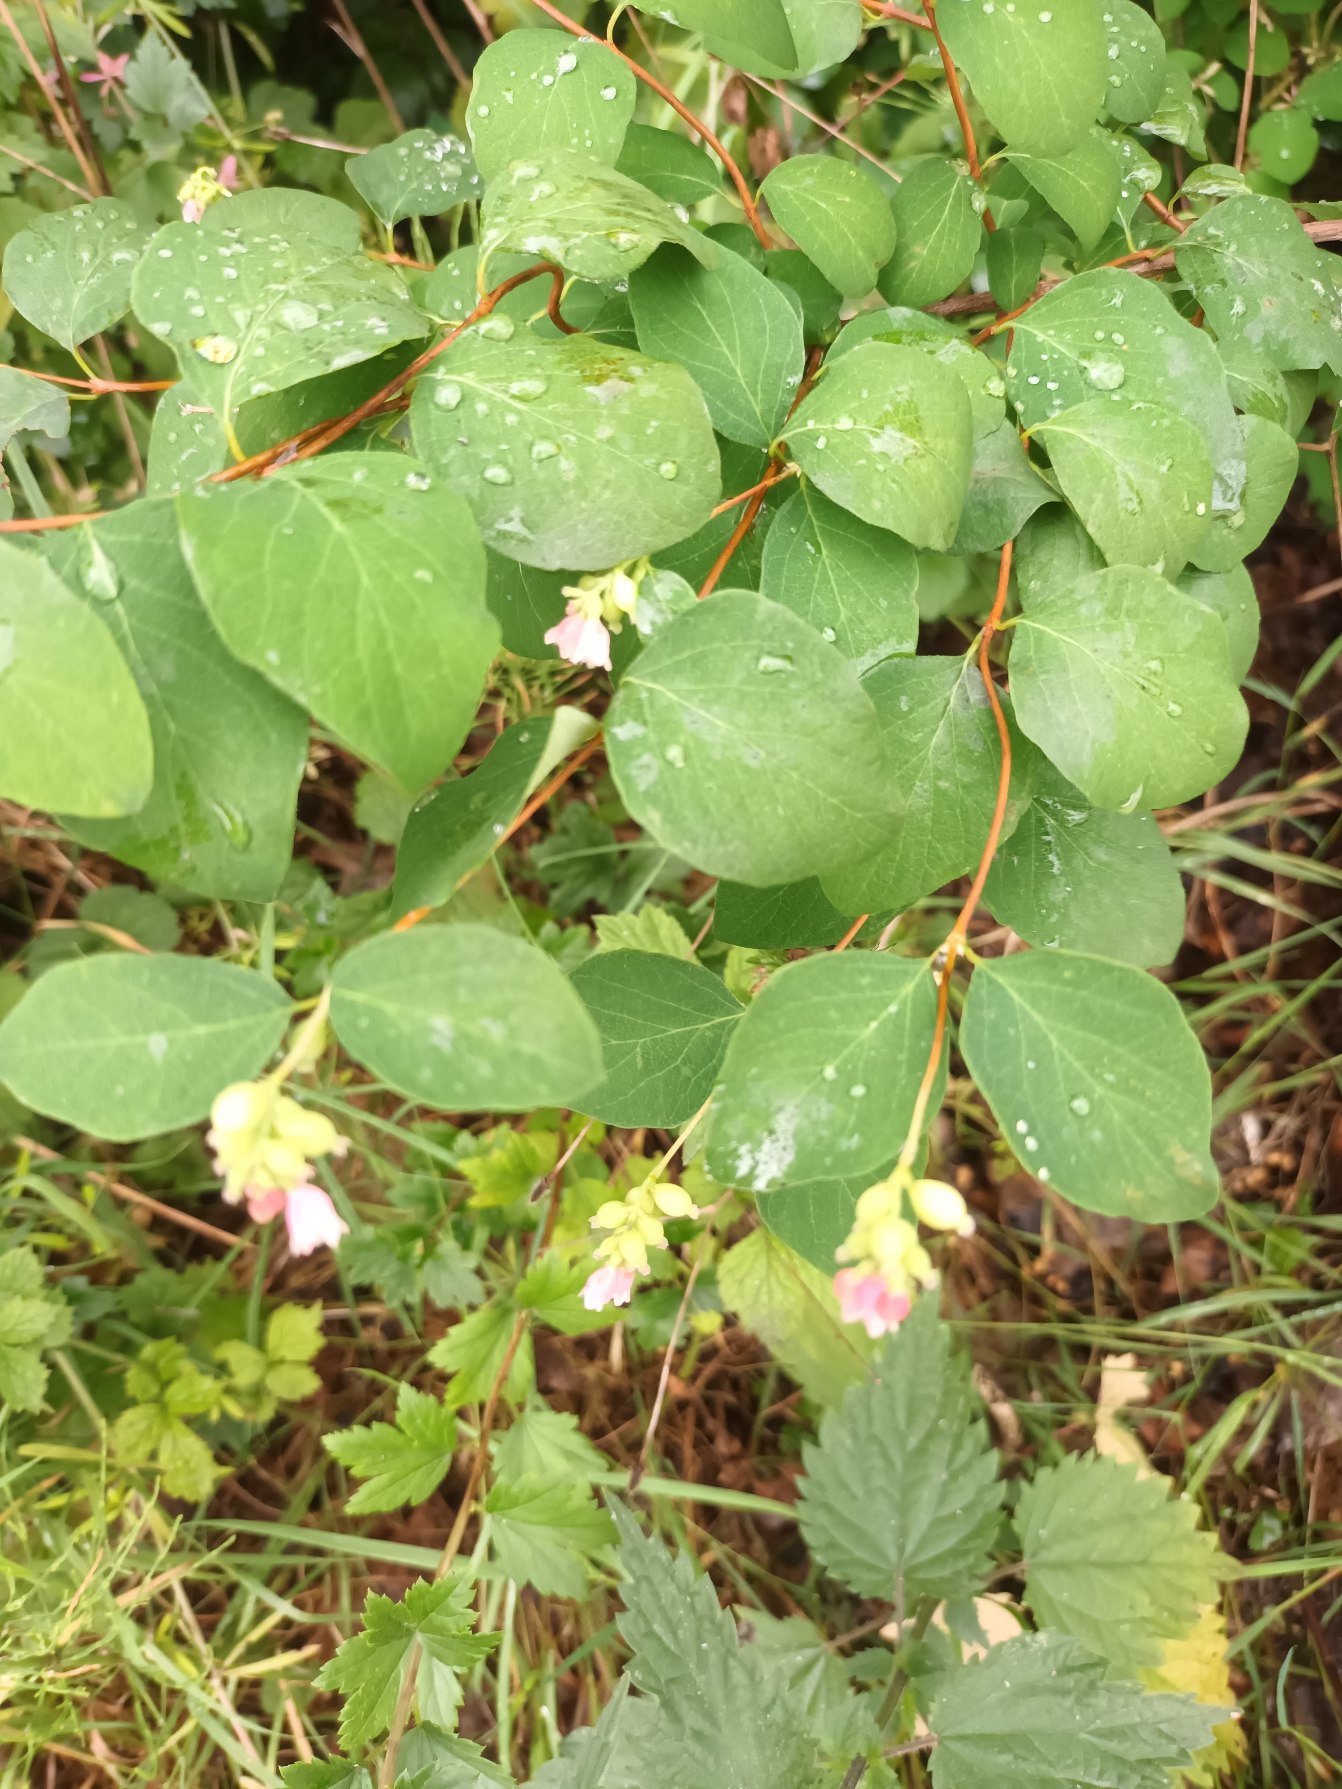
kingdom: Plantae
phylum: Tracheophyta
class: Magnoliopsida
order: Dipsacales
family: Caprifoliaceae
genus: Symphoricarpos
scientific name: Symphoricarpos albus
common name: Almindelig snebær
